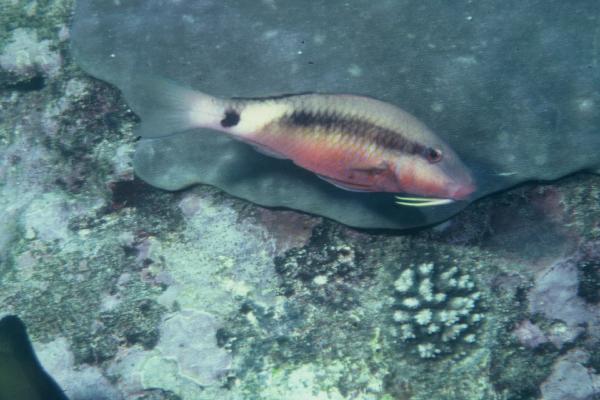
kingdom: Animalia
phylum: Chordata
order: Perciformes
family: Mullidae
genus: Parupeneus
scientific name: Parupeneus macronemus
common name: Long-barbel goatfish
